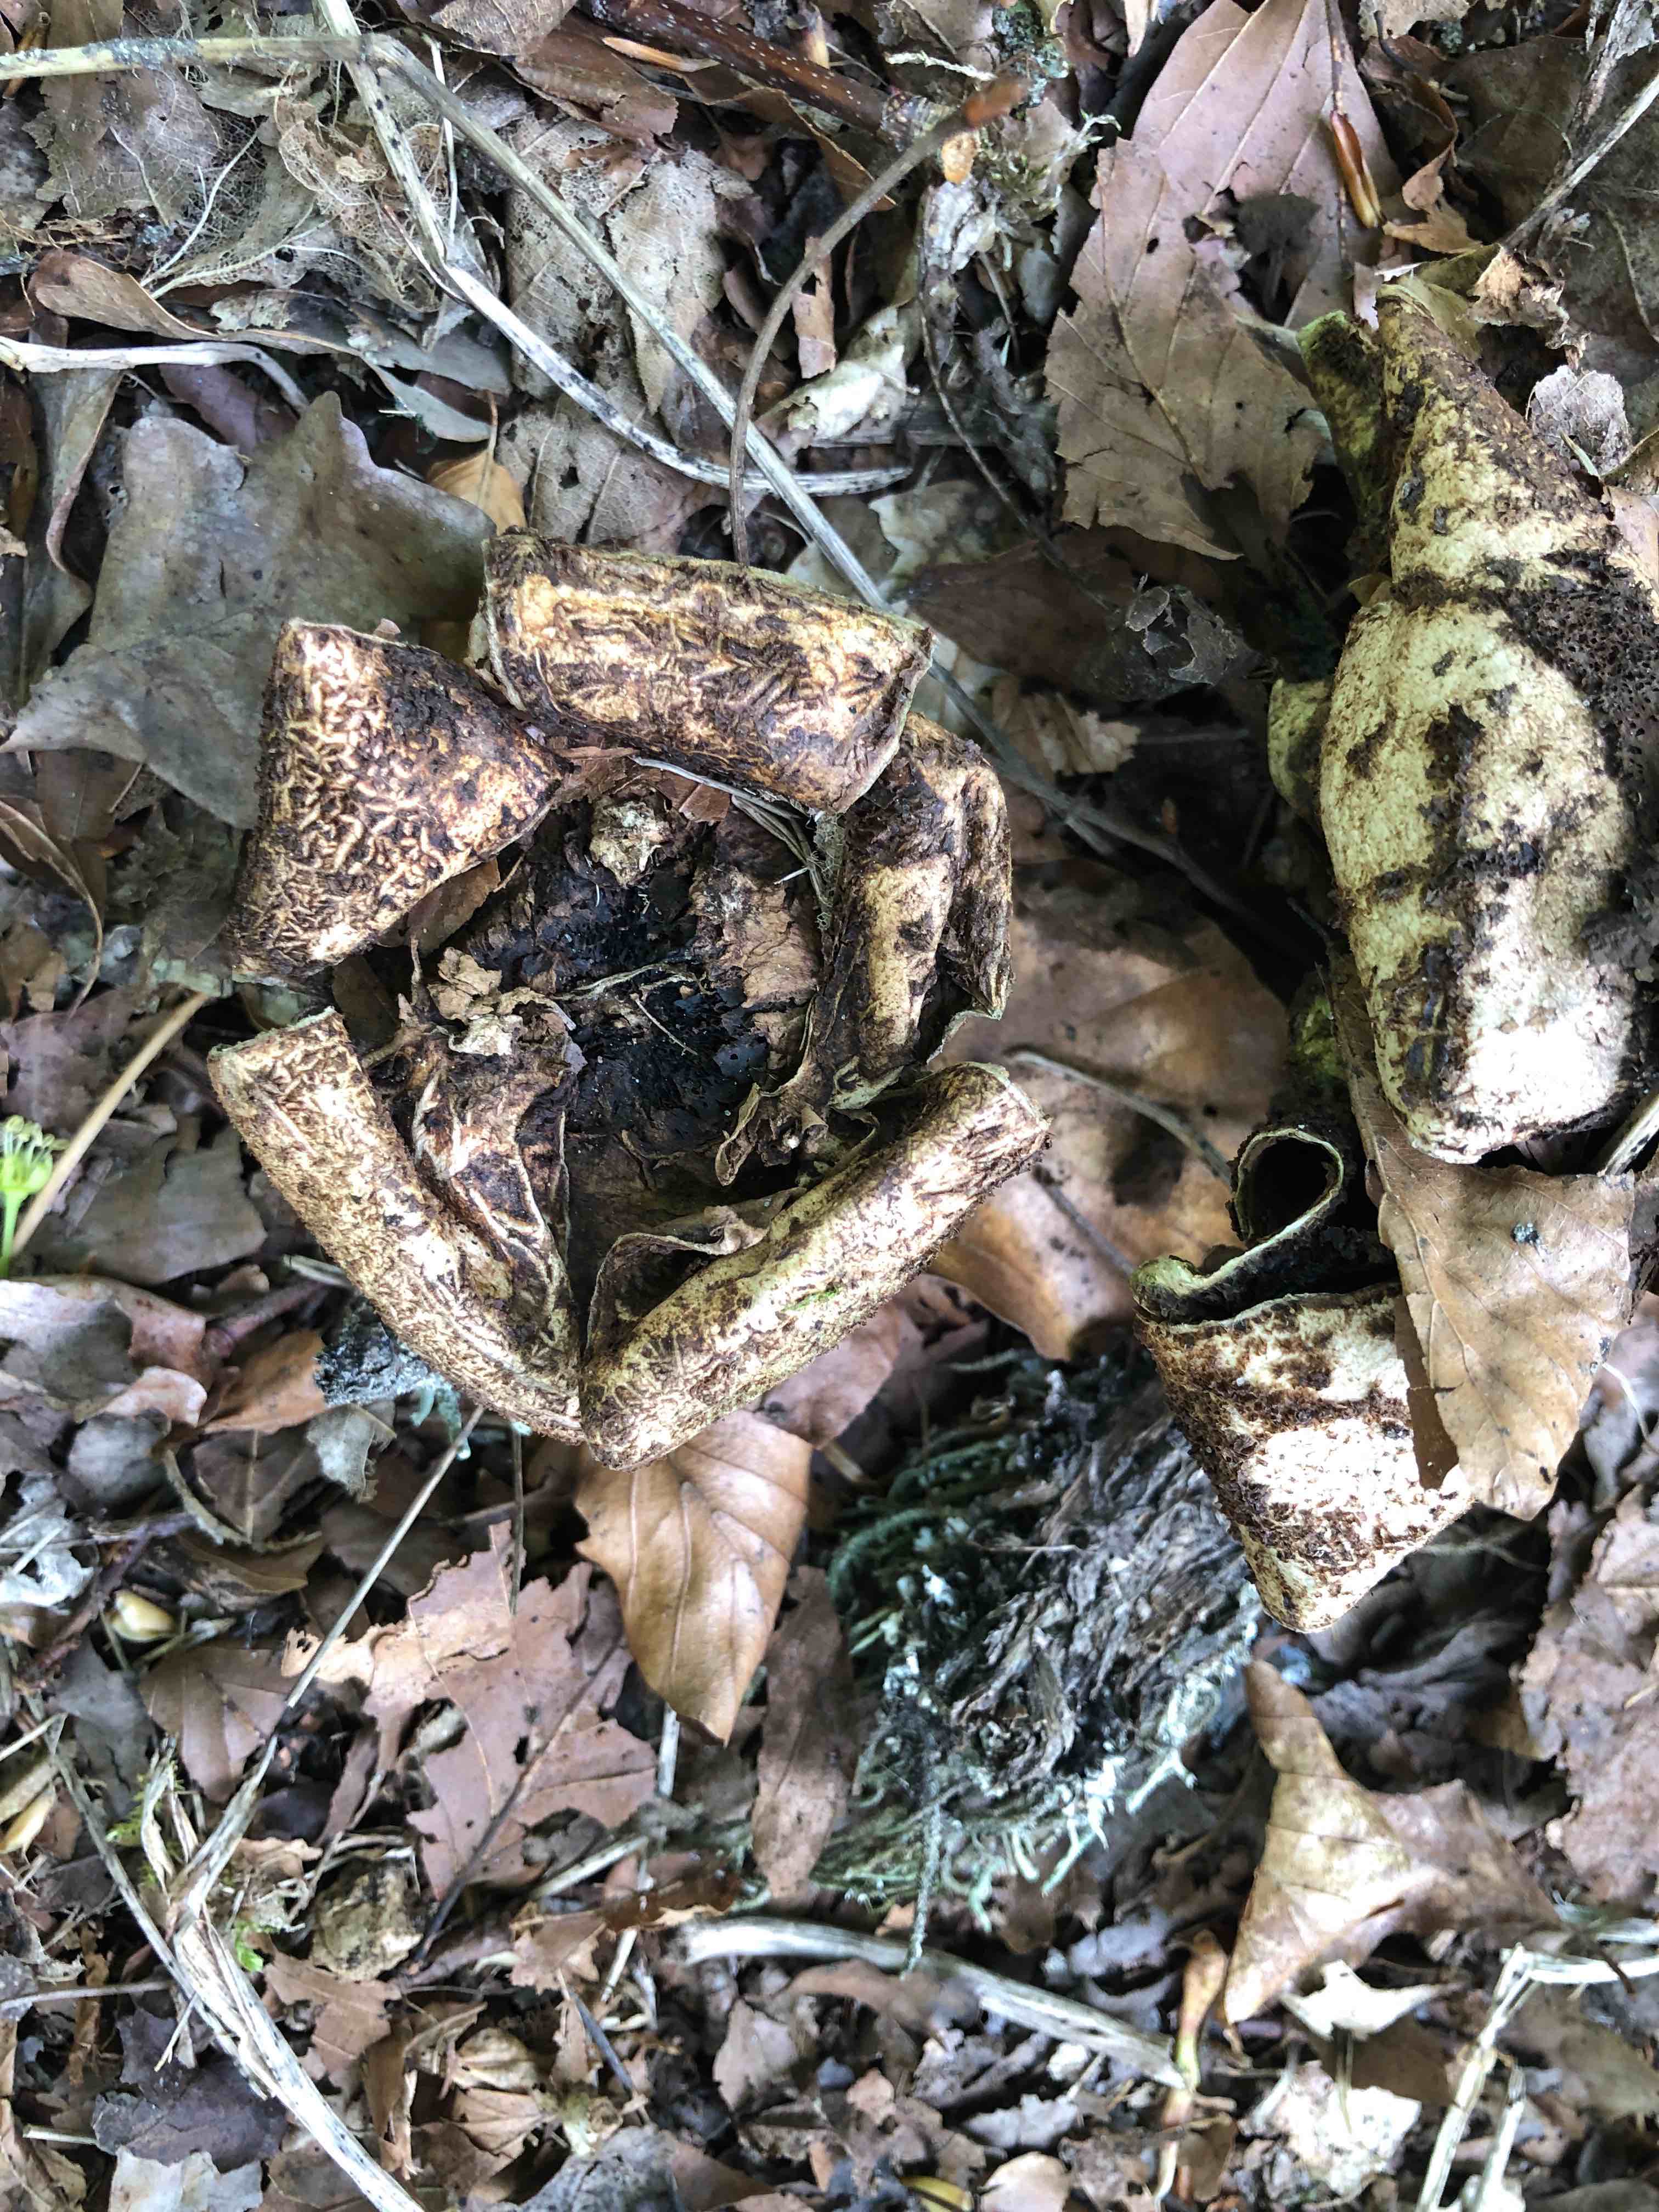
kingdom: Fungi
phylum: Basidiomycota
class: Agaricomycetes
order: Geastrales
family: Geastraceae
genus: Geastrum
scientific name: Geastrum michelianum
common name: kødet stjernebold
